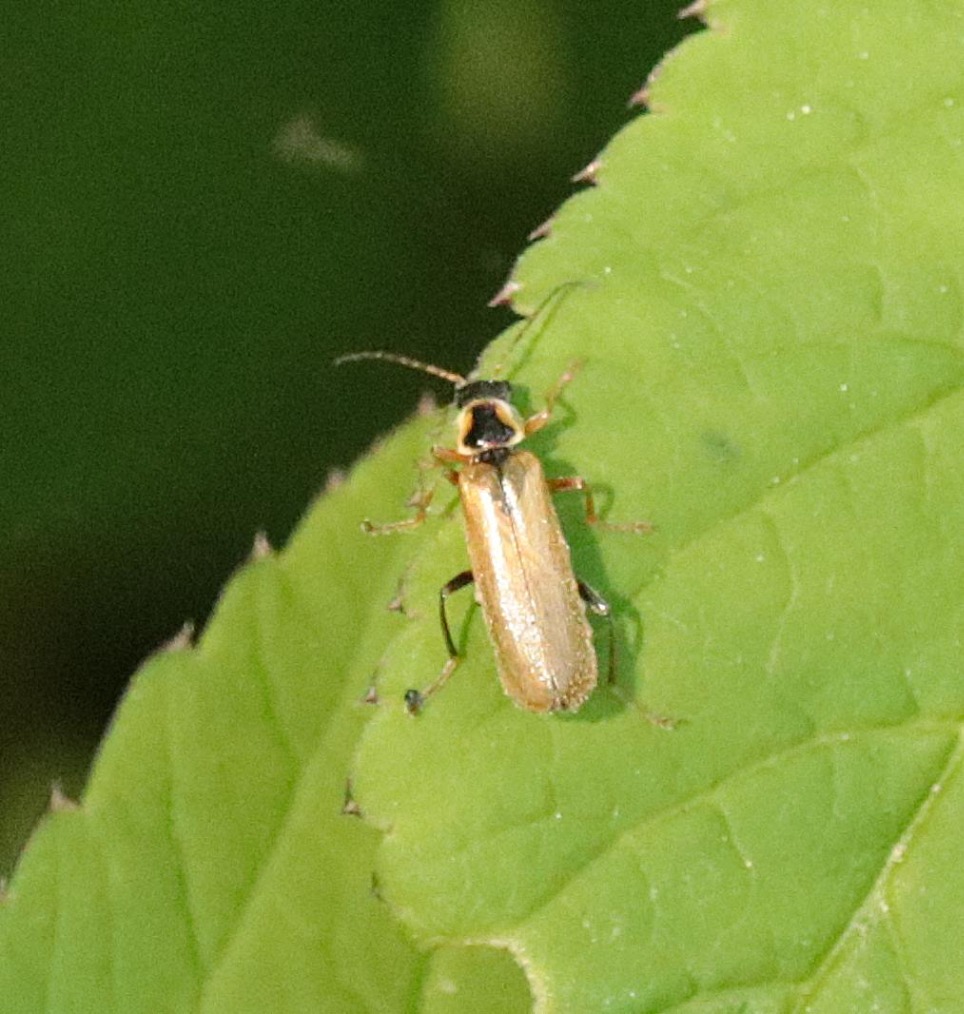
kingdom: Animalia
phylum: Arthropoda
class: Insecta
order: Coleoptera
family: Cantharidae
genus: Cantharis
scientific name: Cantharis decipiens
